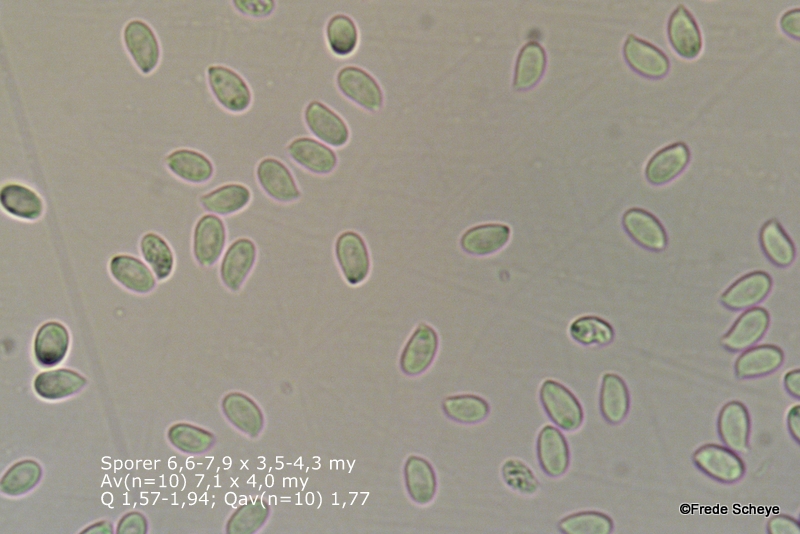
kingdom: Fungi
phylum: Basidiomycota
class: Agaricomycetes
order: Agaricales
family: Physalacriaceae
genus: Flammulina
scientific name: Flammulina velutipes
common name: gul fløjlsfod
